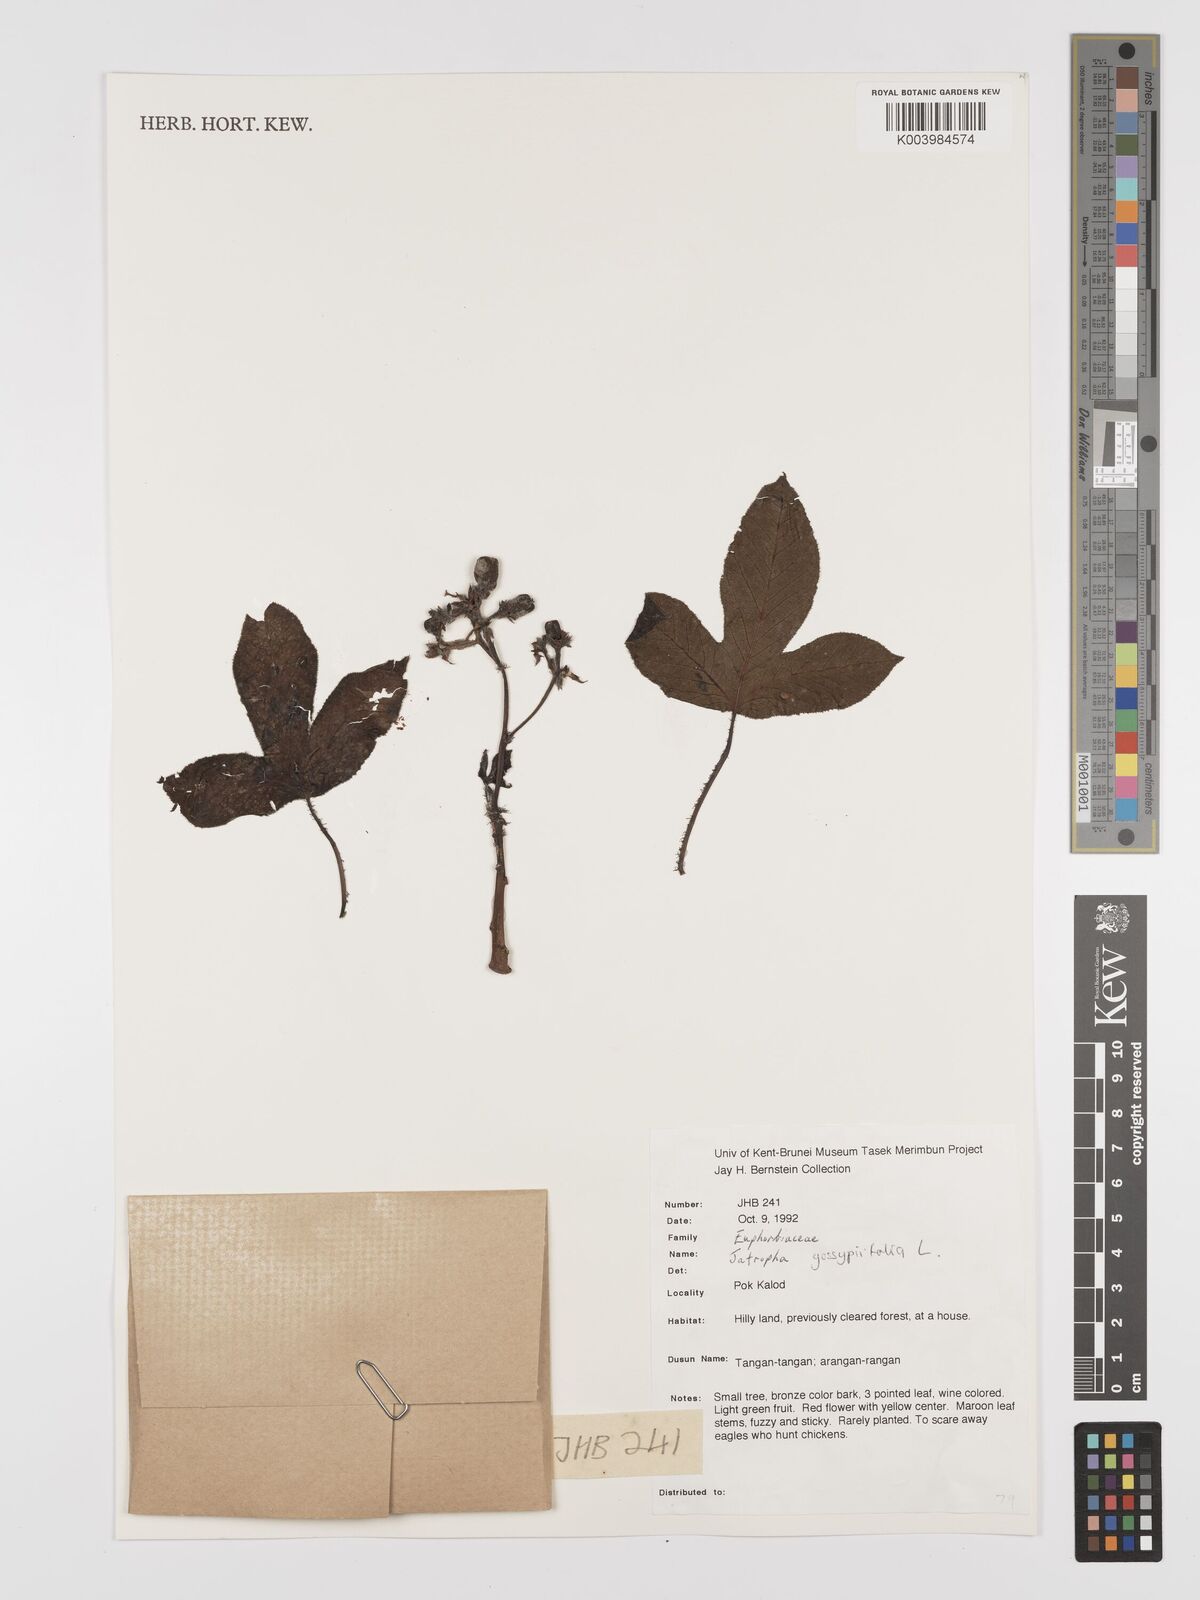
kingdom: Plantae
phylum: Tracheophyta
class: Magnoliopsida
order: Malpighiales
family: Euphorbiaceae
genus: Jatropha
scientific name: Jatropha gossypiifolia
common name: Bellyache bush
